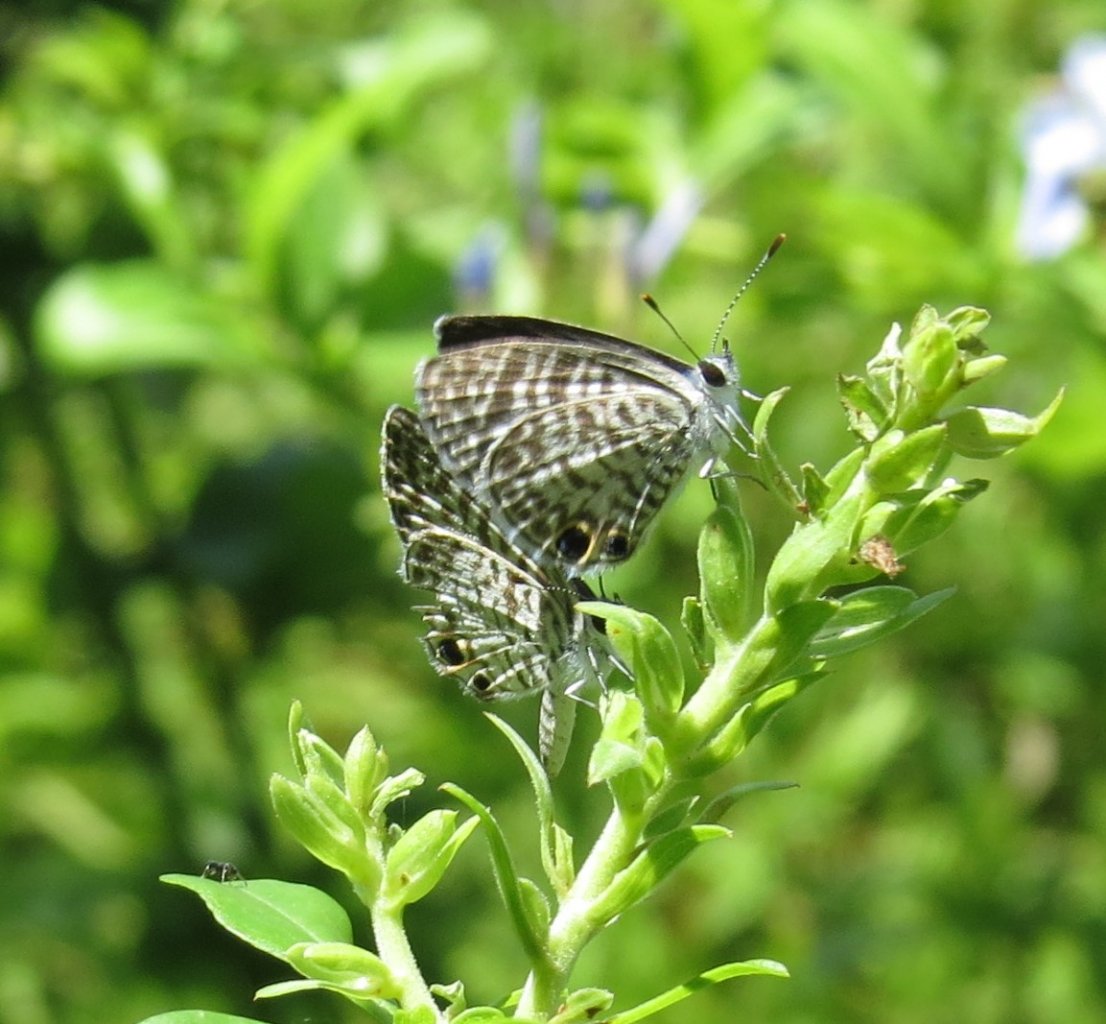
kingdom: Animalia
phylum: Arthropoda
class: Insecta
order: Lepidoptera
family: Lycaenidae
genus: Leptotes
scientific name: Leptotes cassius
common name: Cassius Blue
